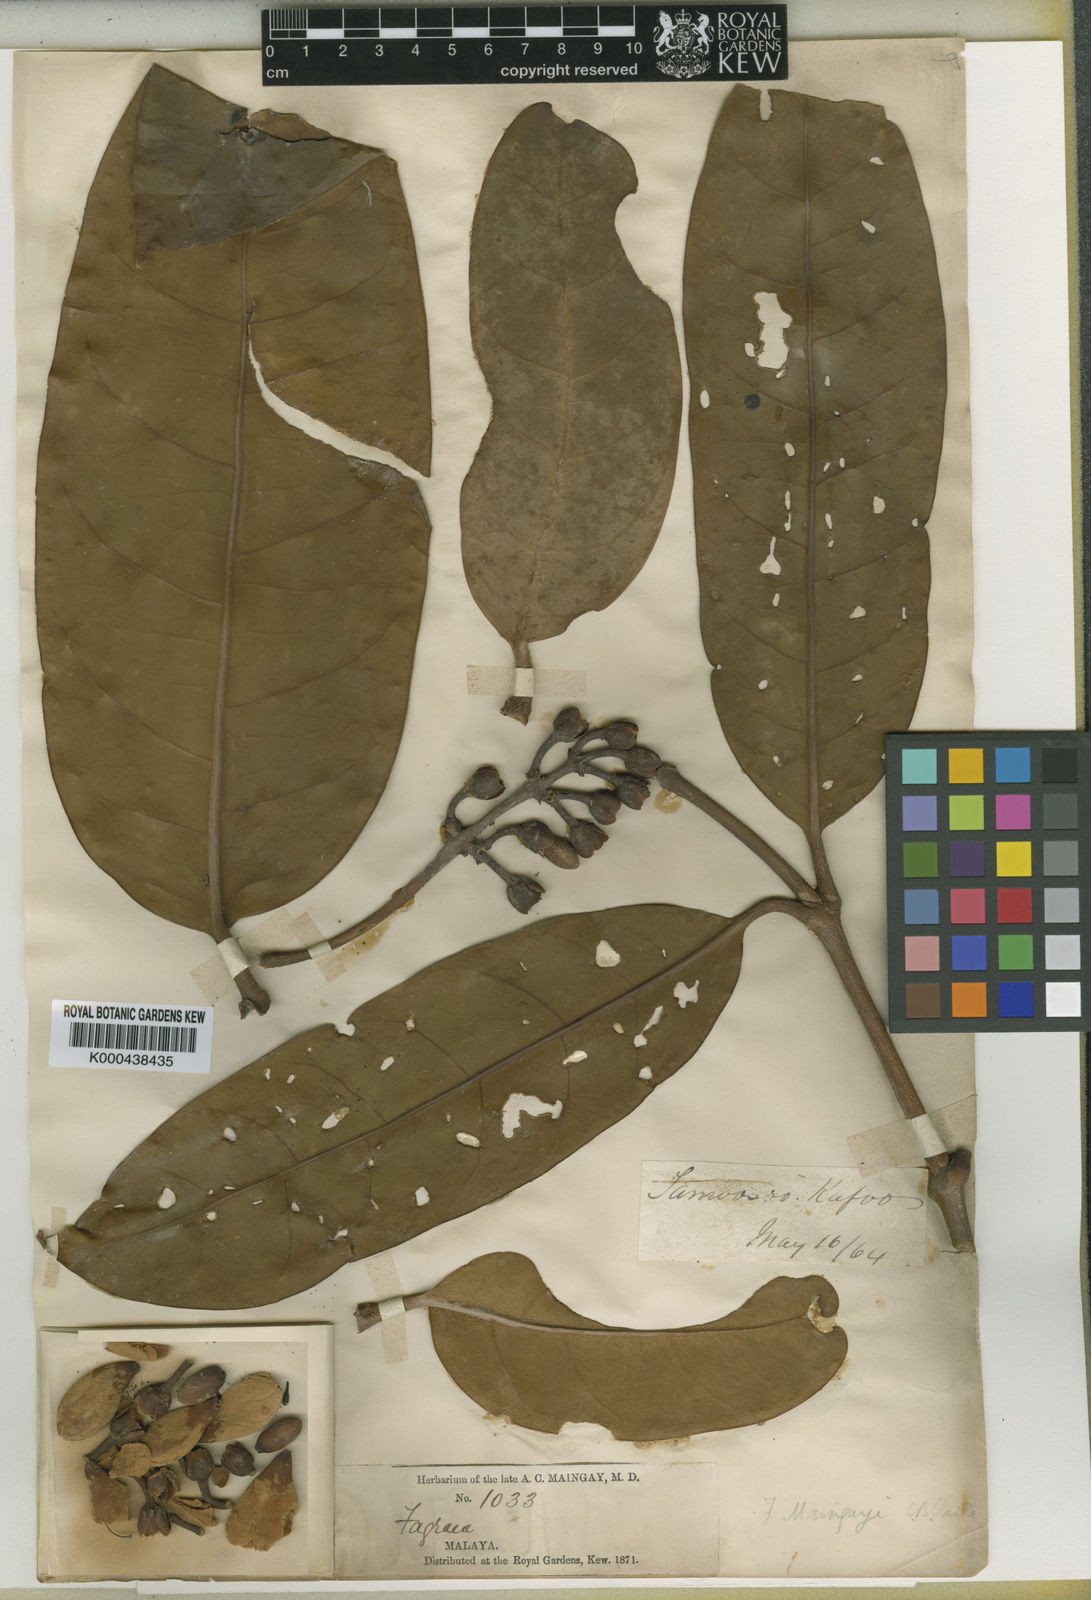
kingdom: Plantae
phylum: Tracheophyta
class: Magnoliopsida
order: Gentianales
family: Gentianaceae
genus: Utania
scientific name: Utania maingayi
